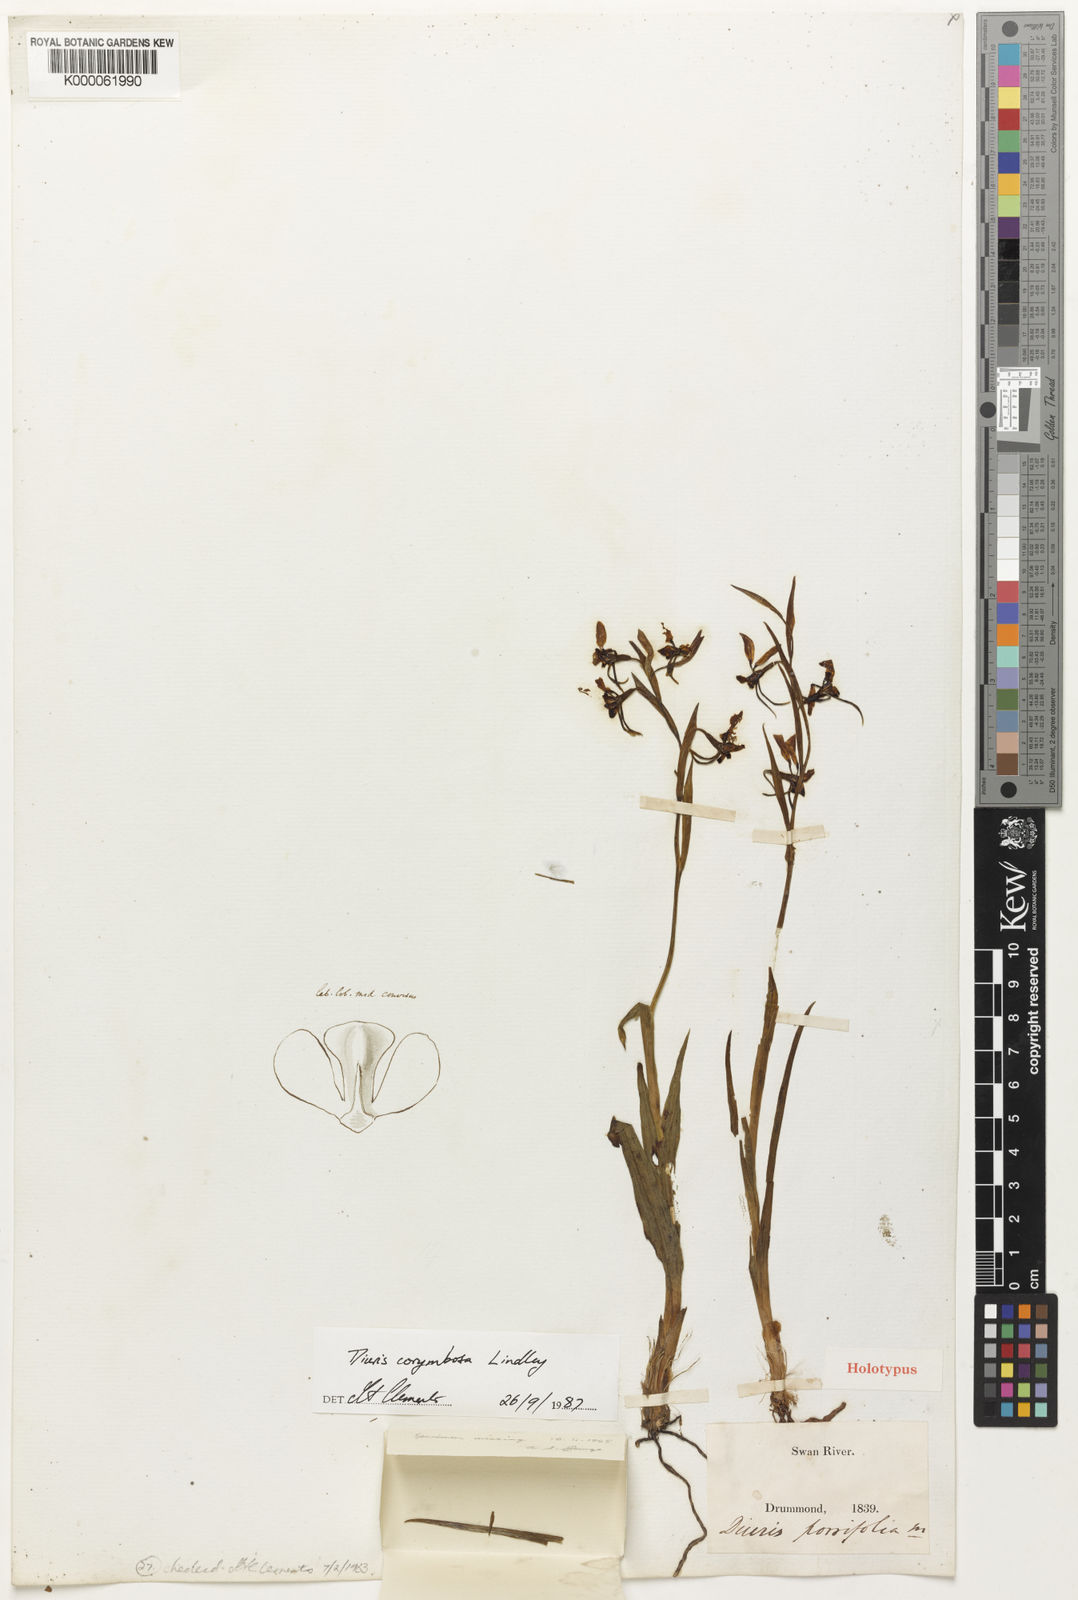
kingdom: Plantae
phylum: Tracheophyta
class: Liliopsida
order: Asparagales
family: Orchidaceae
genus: Diuris
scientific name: Diuris porrifolia
